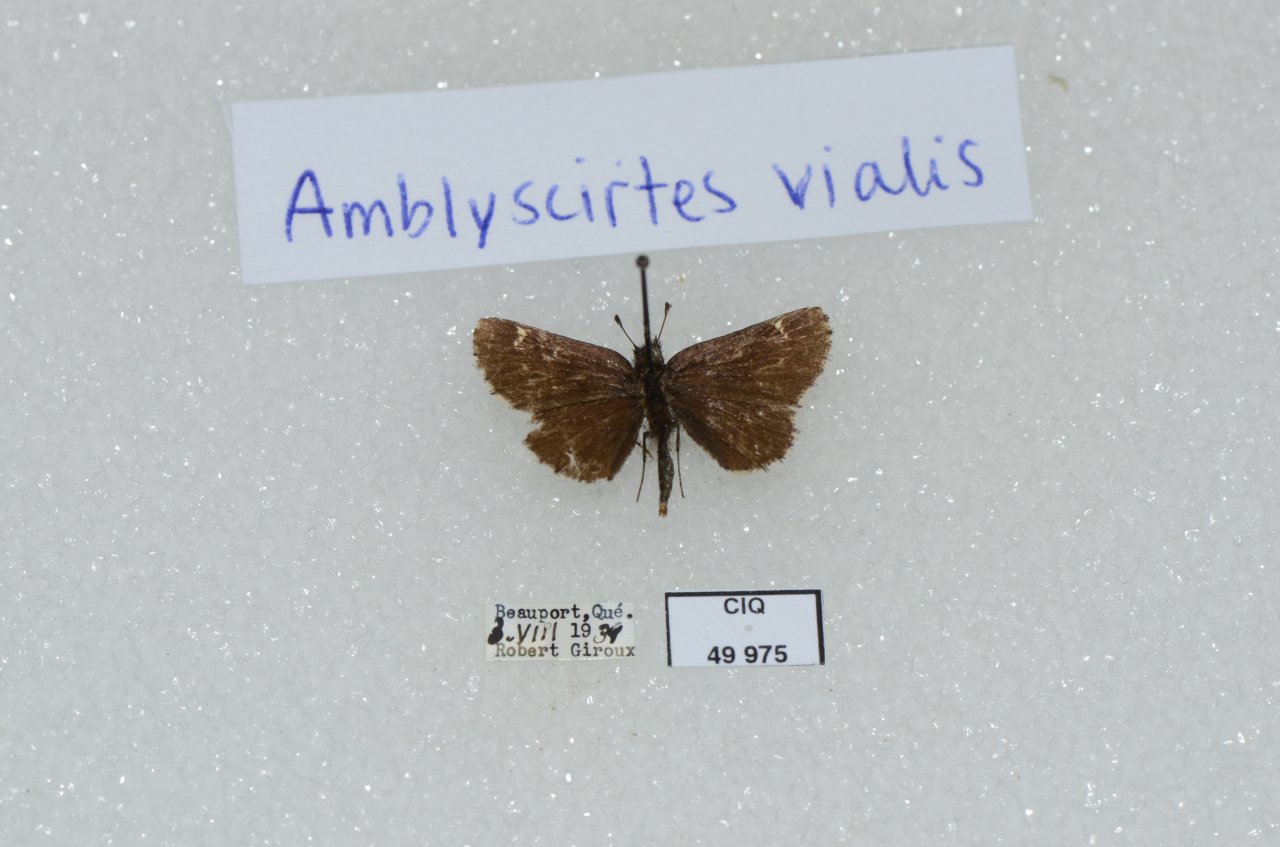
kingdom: Animalia
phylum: Arthropoda
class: Insecta
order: Lepidoptera
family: Hesperiidae
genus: Mastor
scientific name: Mastor vialis
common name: Common Roadside-Skipper
